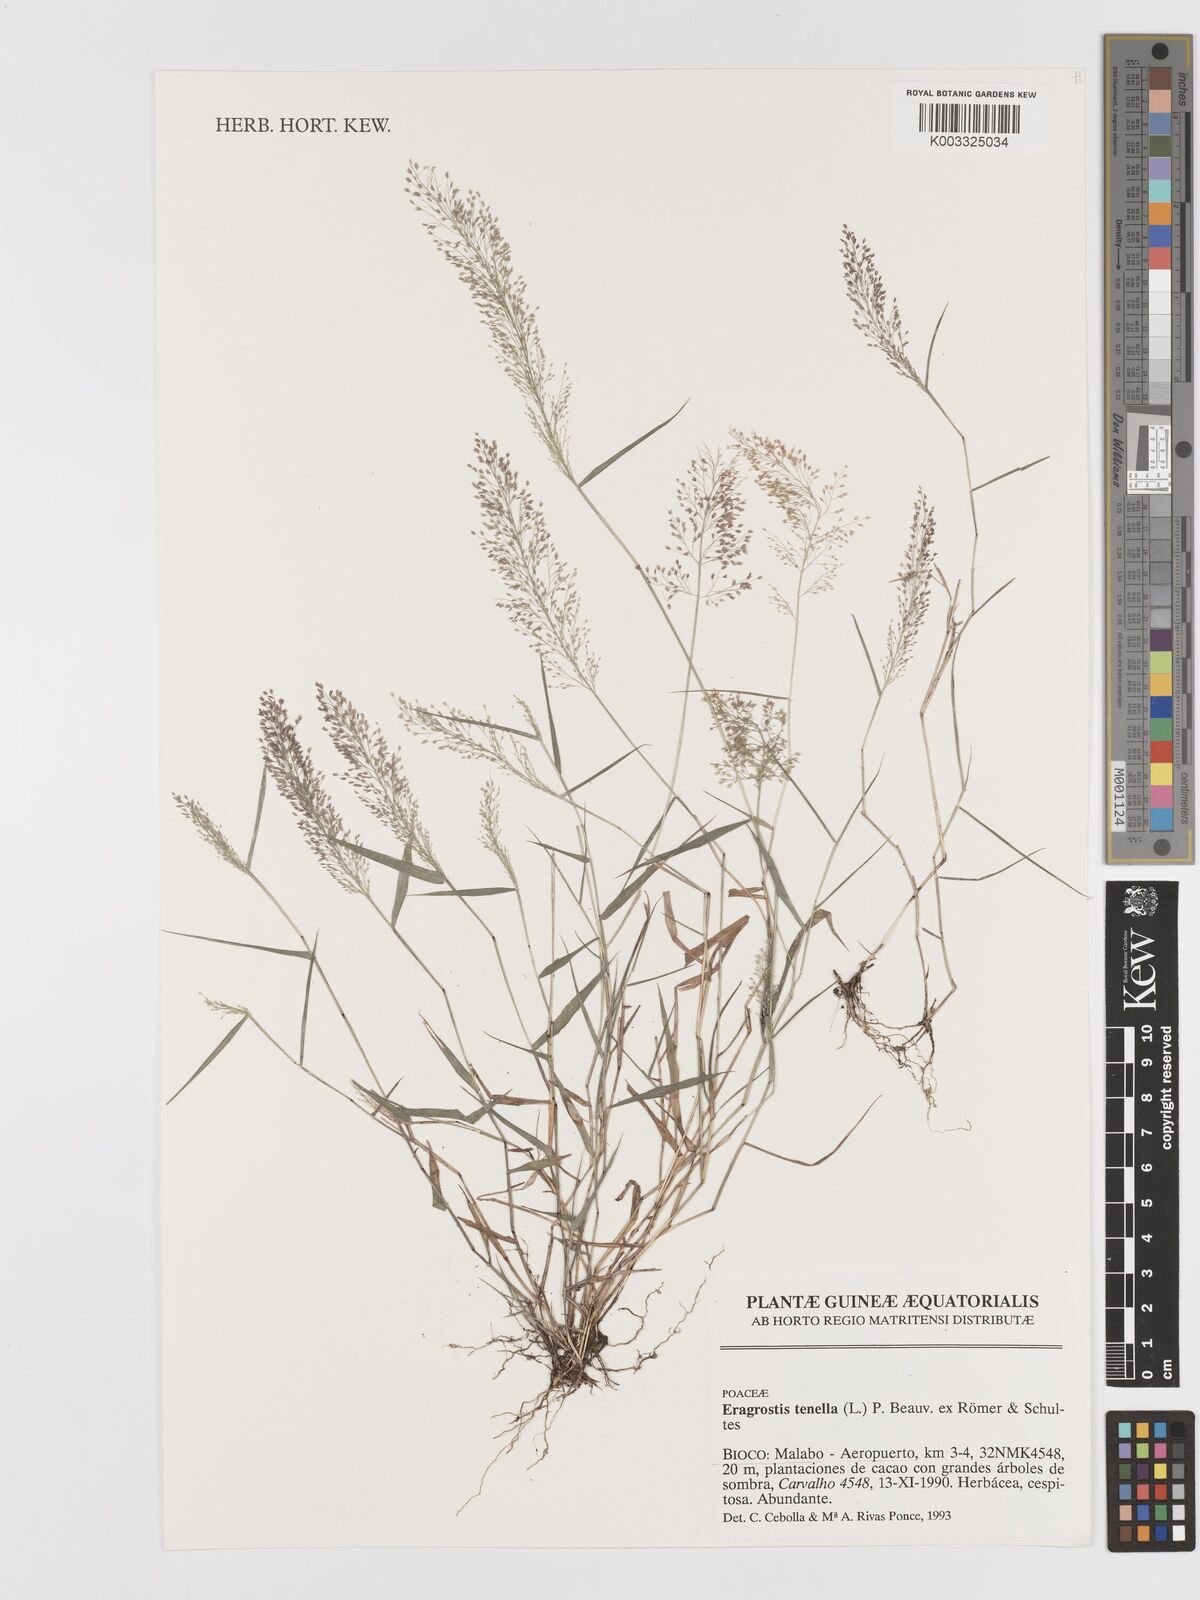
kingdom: Plantae
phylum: Tracheophyta
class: Liliopsida
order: Poales
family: Poaceae
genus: Eragrostis
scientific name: Eragrostis tenella
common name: Japanese lovegrass
